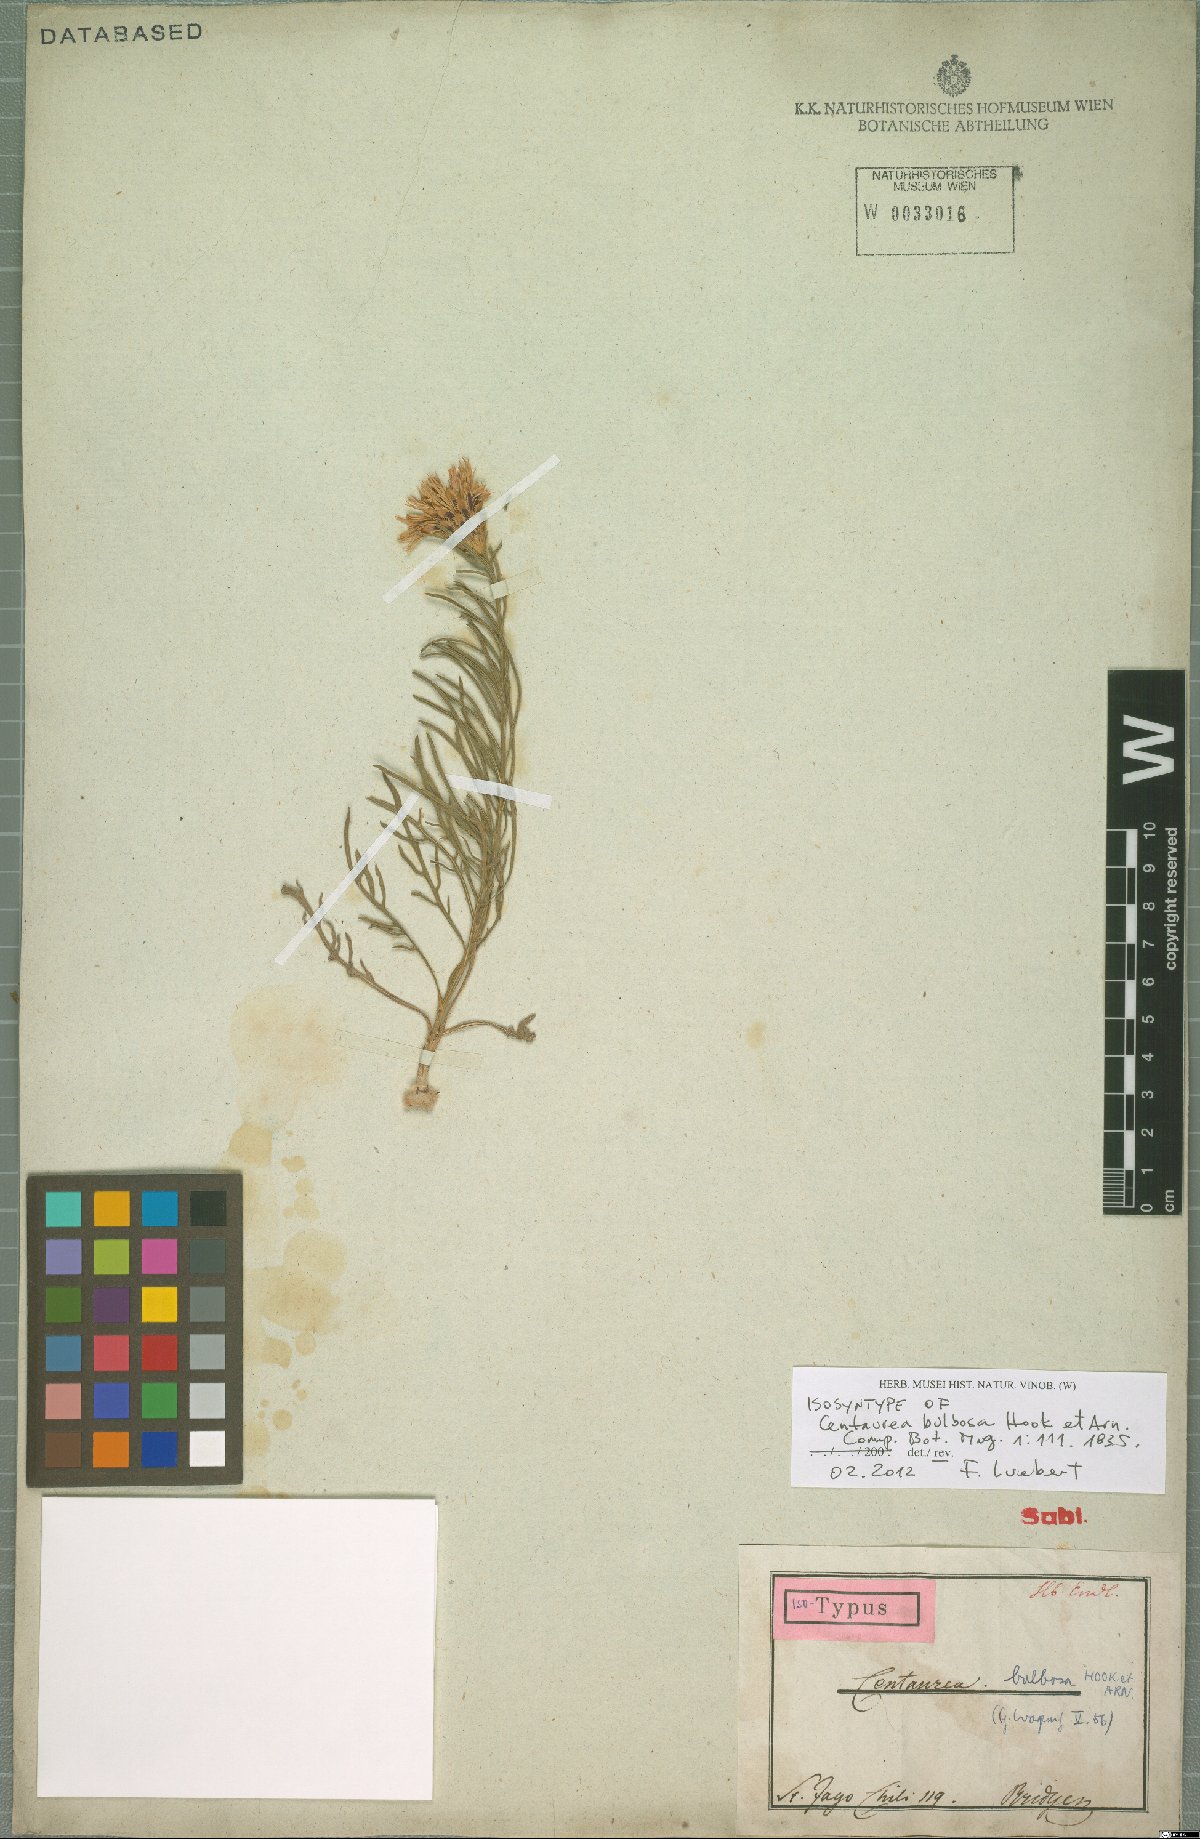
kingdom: Plantae
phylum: Tracheophyta
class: Magnoliopsida
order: Asterales
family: Asteraceae
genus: Plectocephalus
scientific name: Plectocephalus bulbosus
